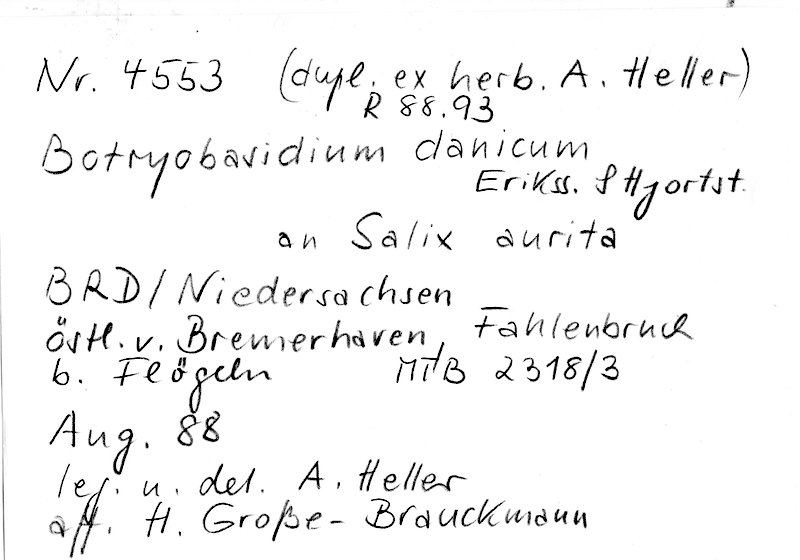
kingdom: Plantae
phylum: Tracheophyta
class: Magnoliopsida
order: Malpighiales
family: Salicaceae
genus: Salix
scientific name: Salix aurita
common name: Eared willow
